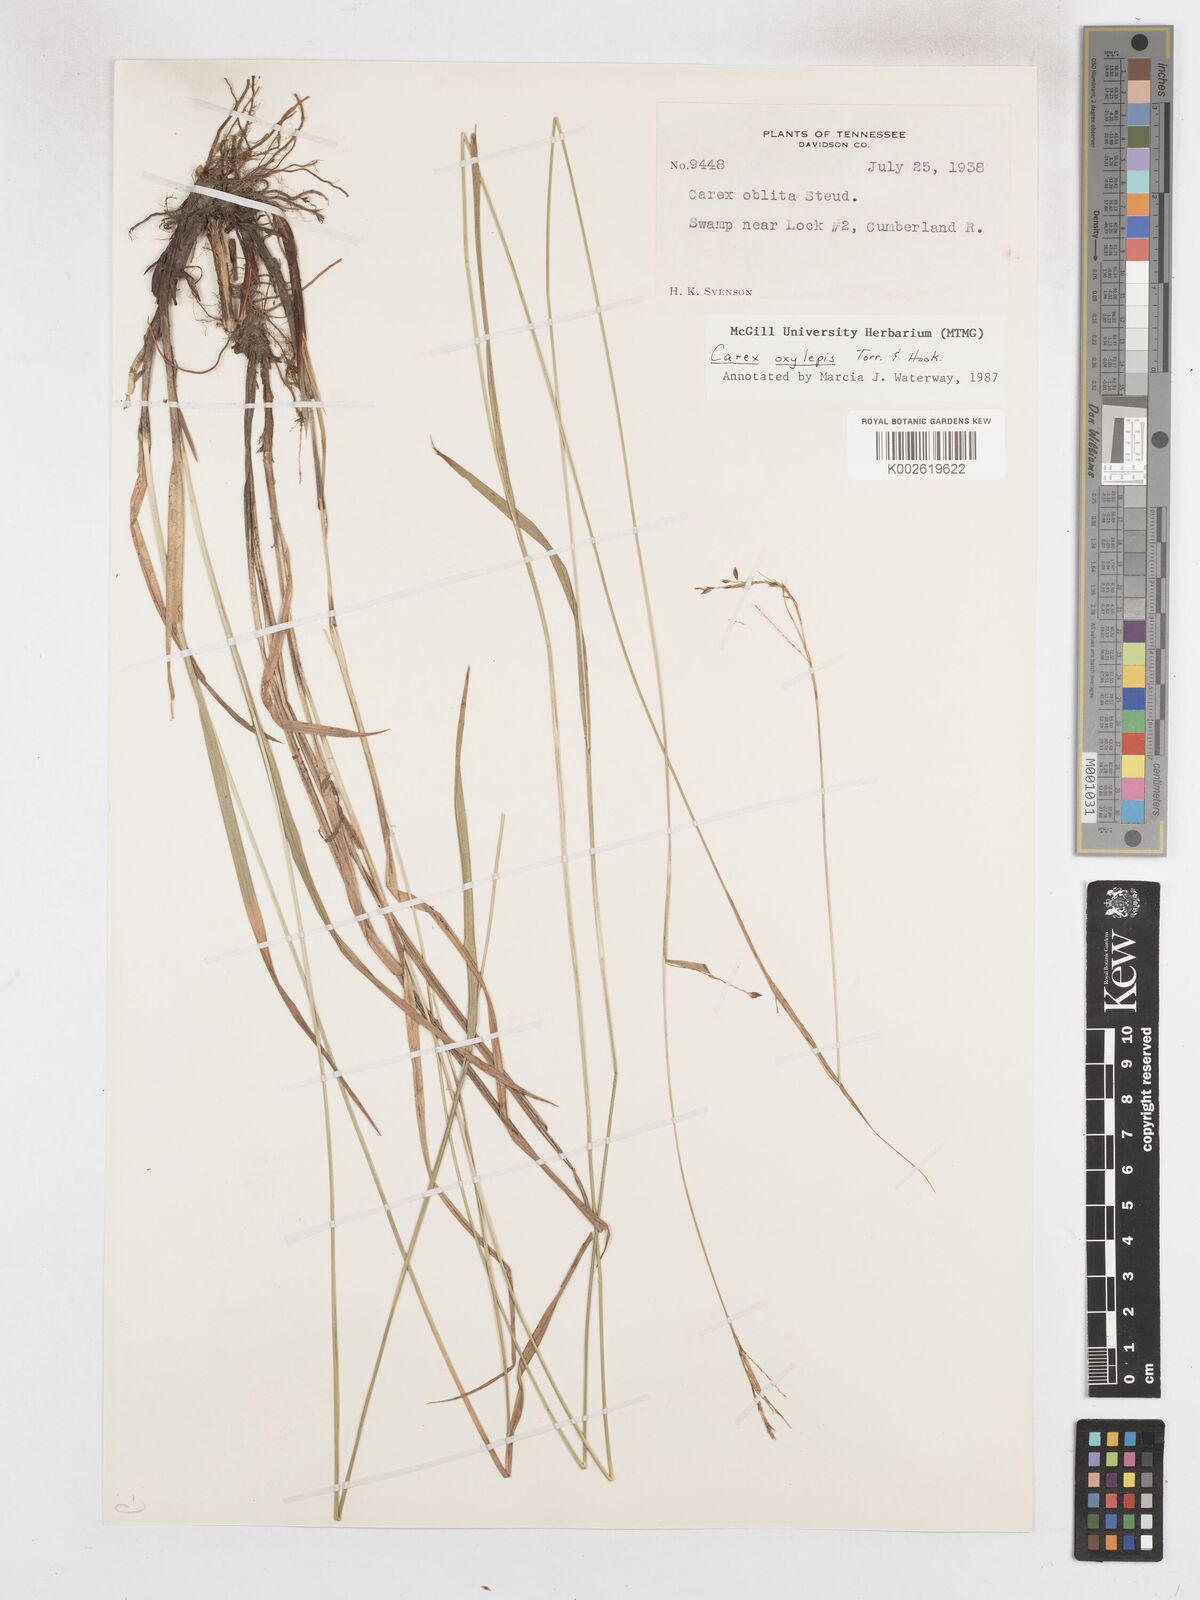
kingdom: Plantae
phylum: Tracheophyta
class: Liliopsida
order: Poales
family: Cyperaceae
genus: Carex
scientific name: Carex oxylepis
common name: Sharpscale sedge
